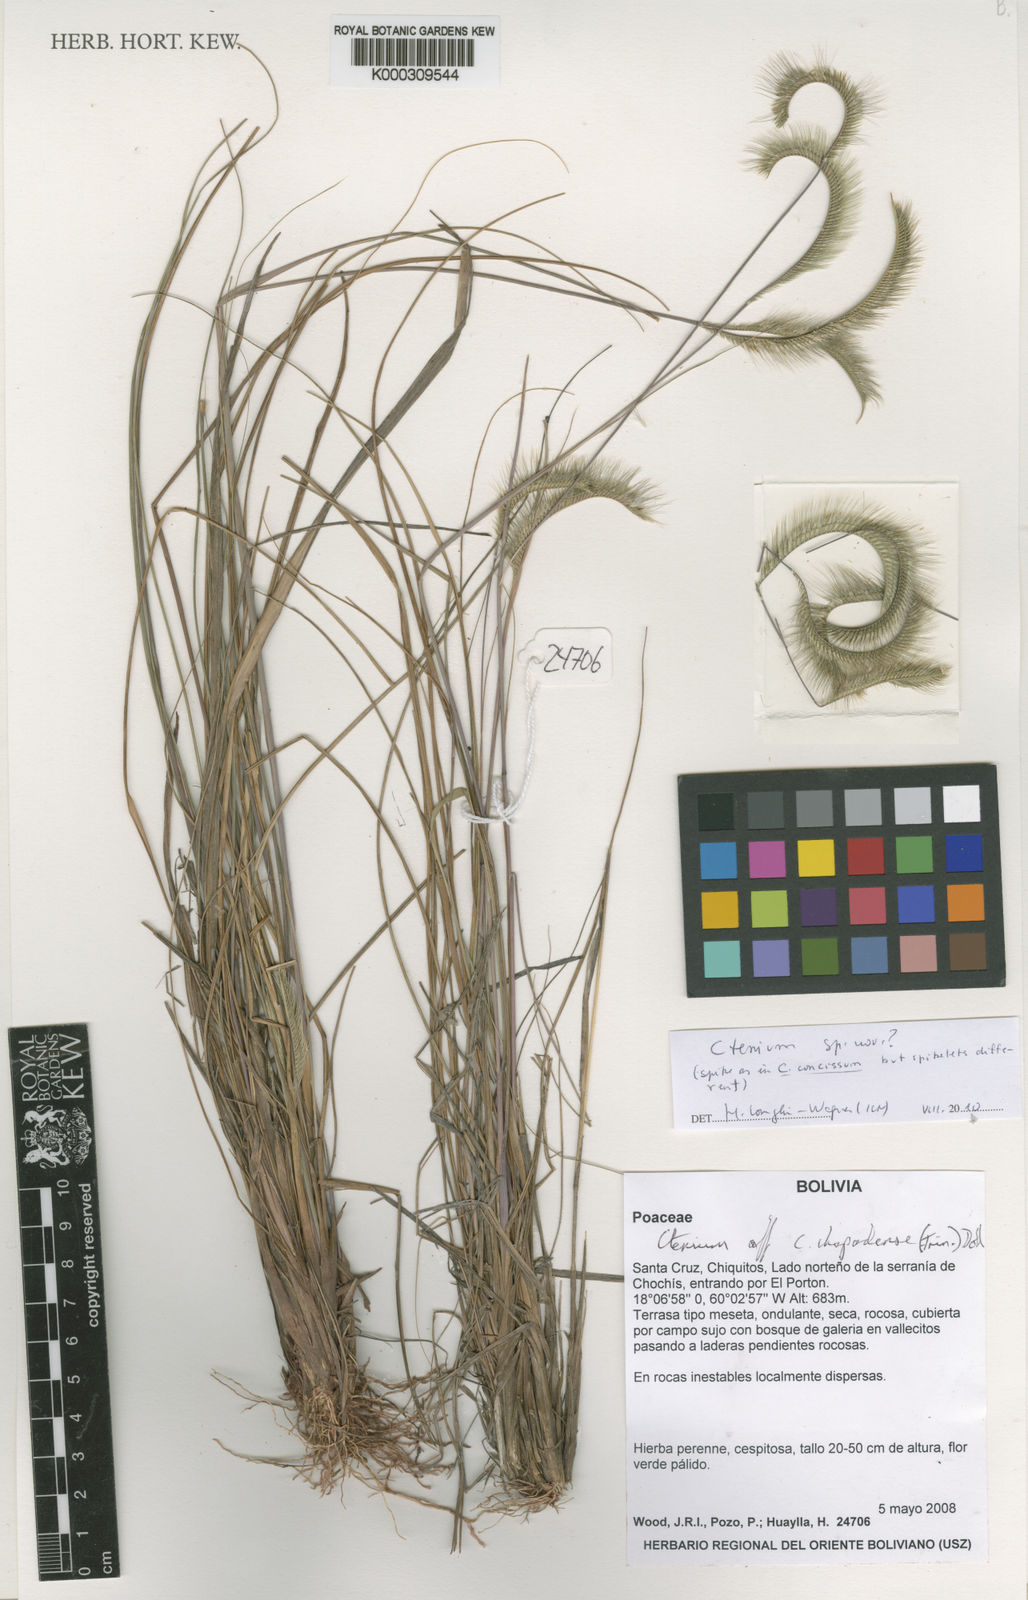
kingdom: Plantae
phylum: Tracheophyta
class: Liliopsida
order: Poales
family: Poaceae
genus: Ctenium
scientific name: Ctenium
